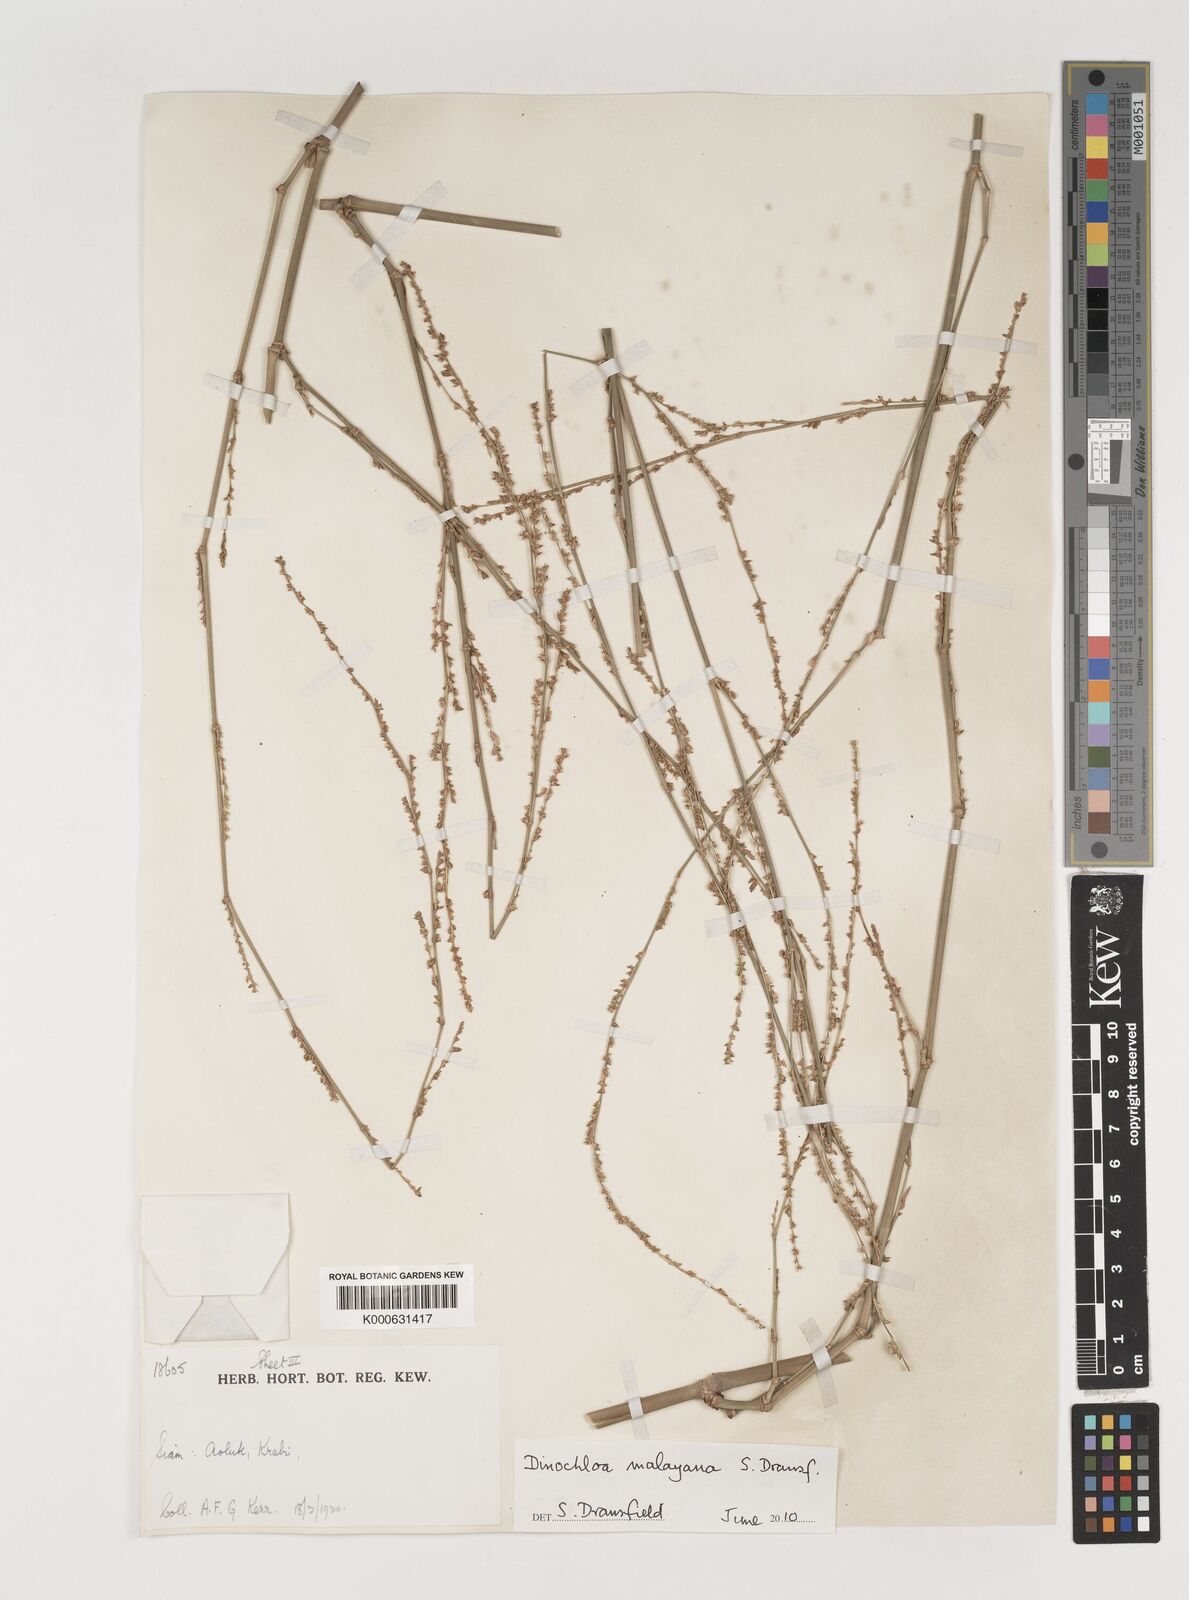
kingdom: Plantae
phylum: Tracheophyta
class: Liliopsida
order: Poales
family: Poaceae
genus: Dinochloa
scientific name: Dinochloa andamanica
